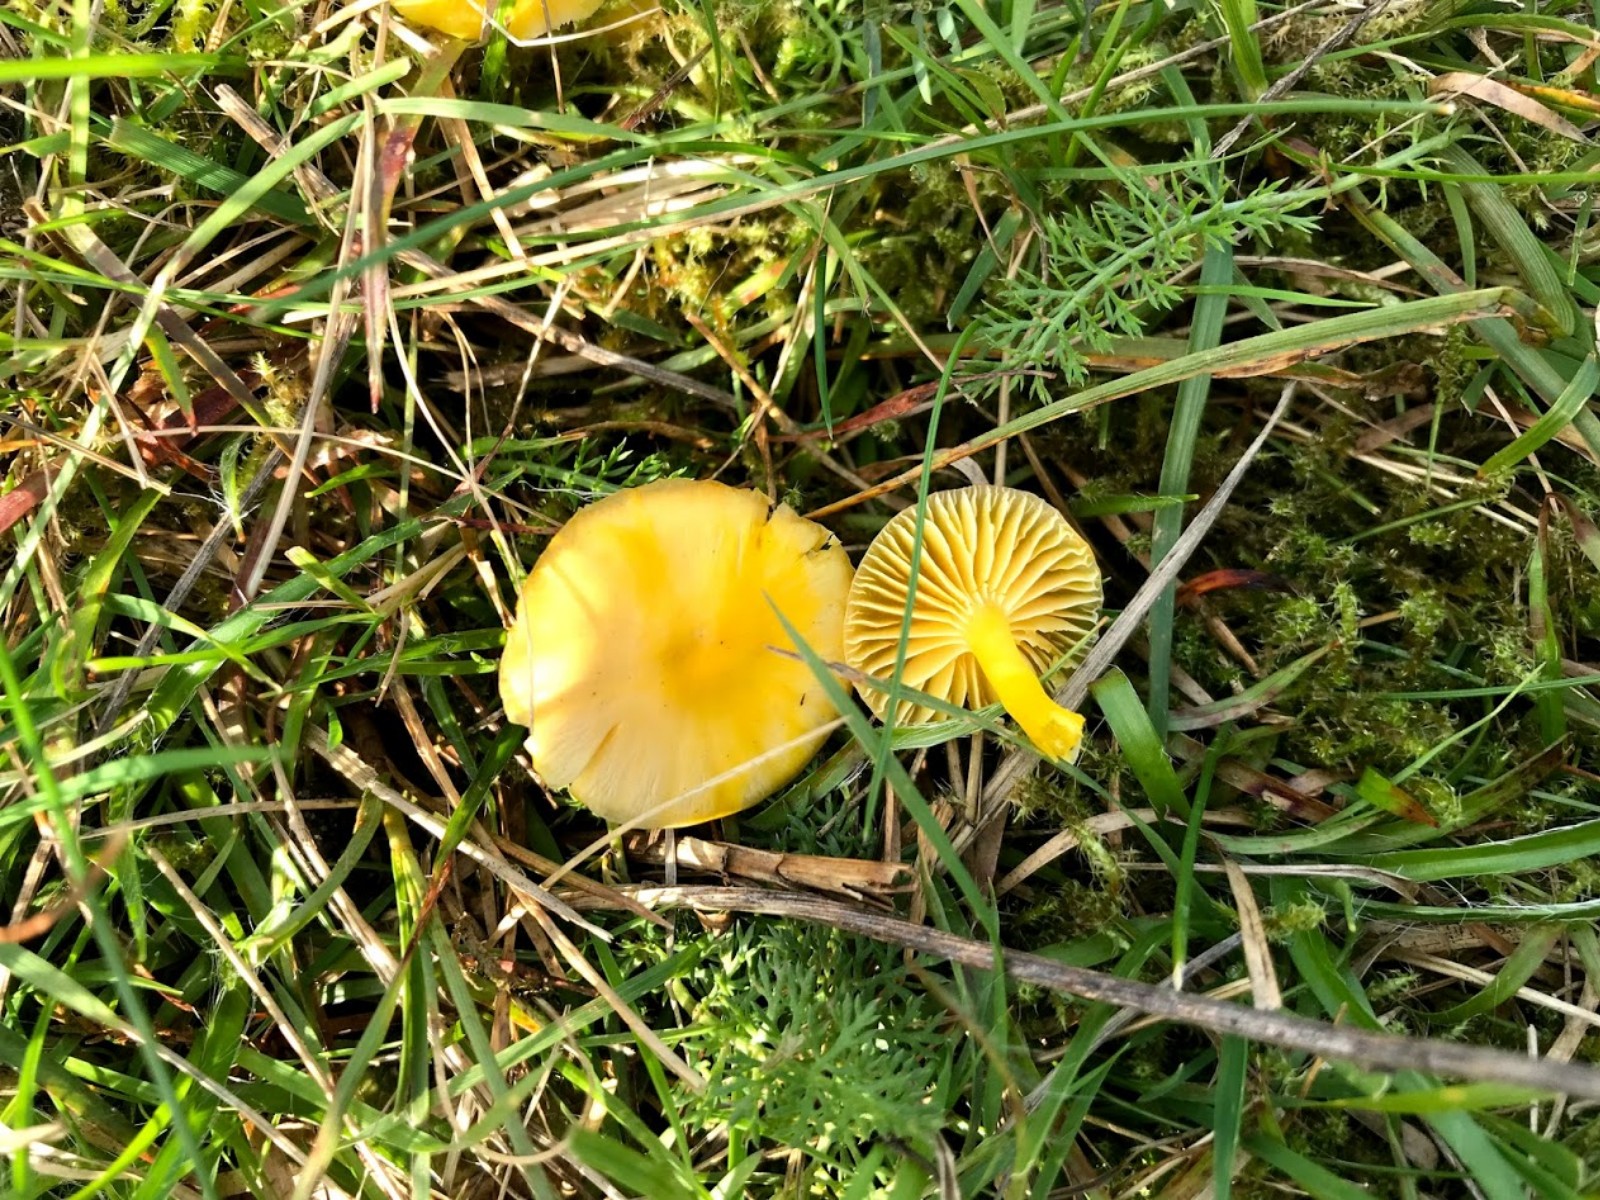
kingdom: Fungi
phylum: Basidiomycota
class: Agaricomycetes
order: Agaricales
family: Hygrophoraceae
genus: Hygrocybe
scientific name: Hygrocybe ceracea
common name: voksgul vokshat
